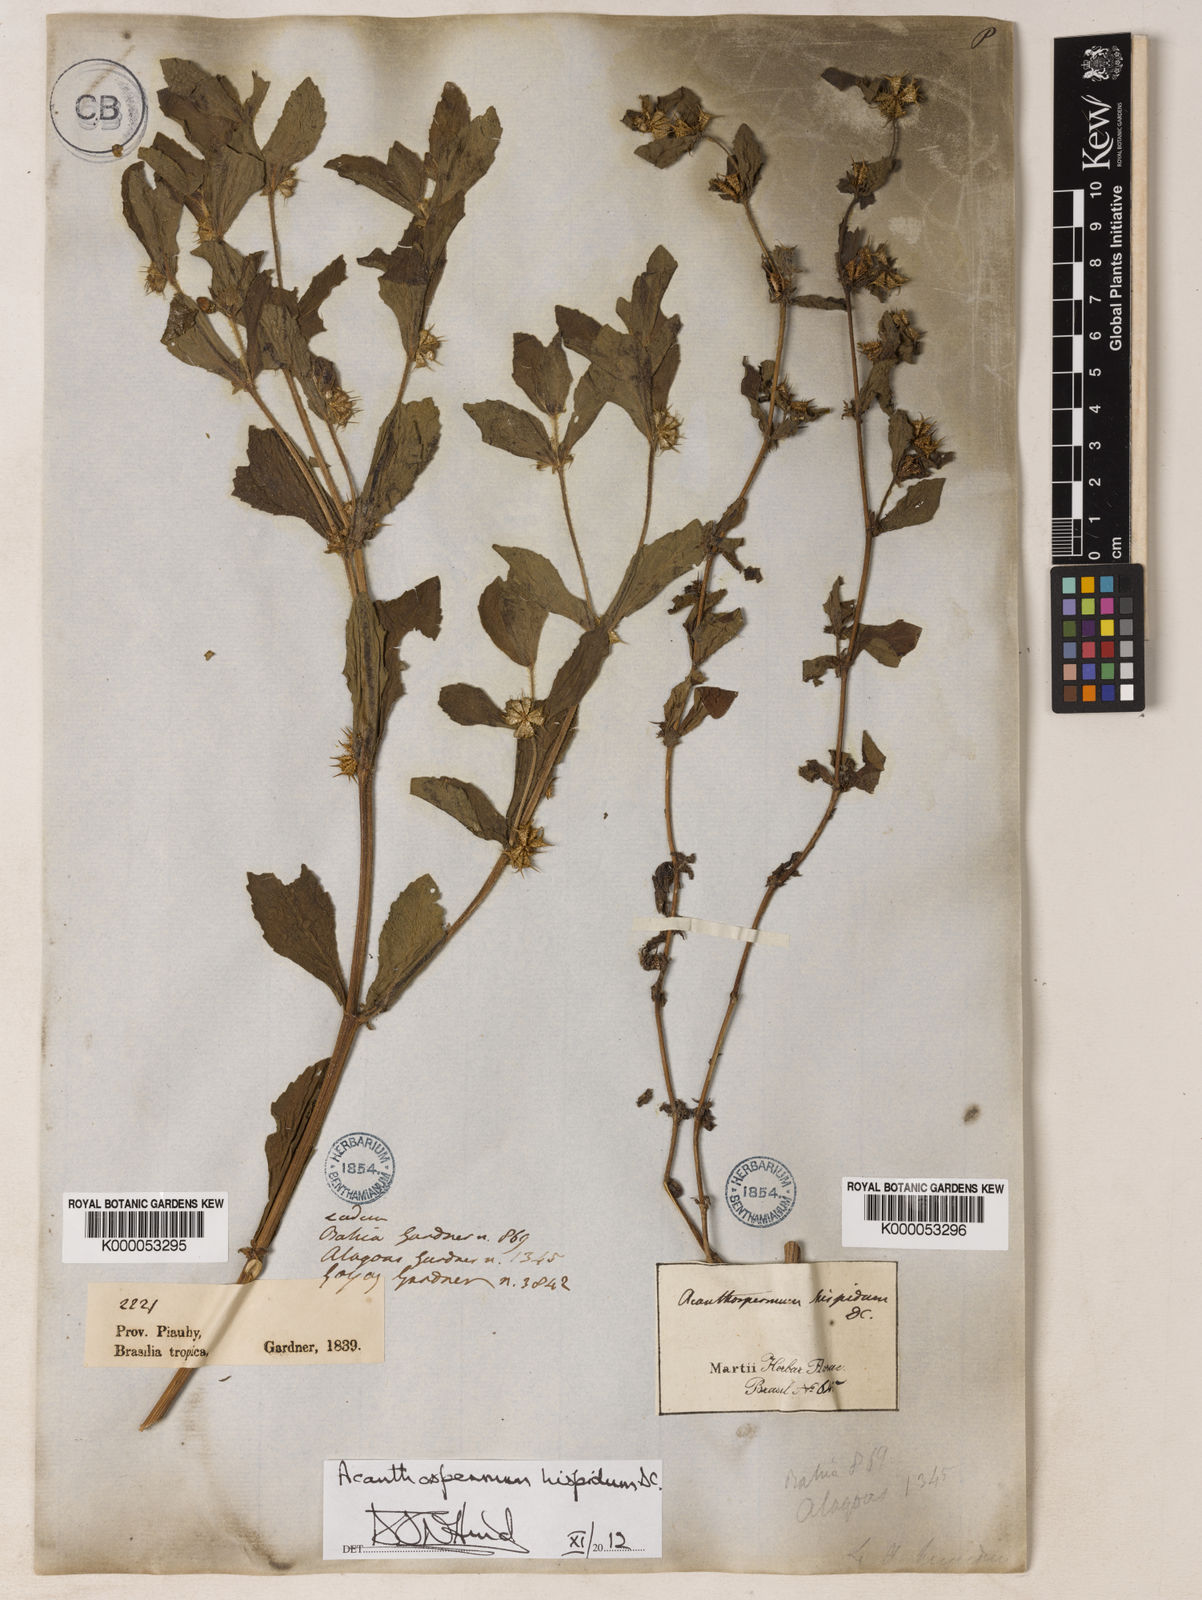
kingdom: Plantae
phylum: Tracheophyta
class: Magnoliopsida
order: Asterales
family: Asteraceae
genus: Acanthospermum
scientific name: Acanthospermum hispidum
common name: Hispid starbur
